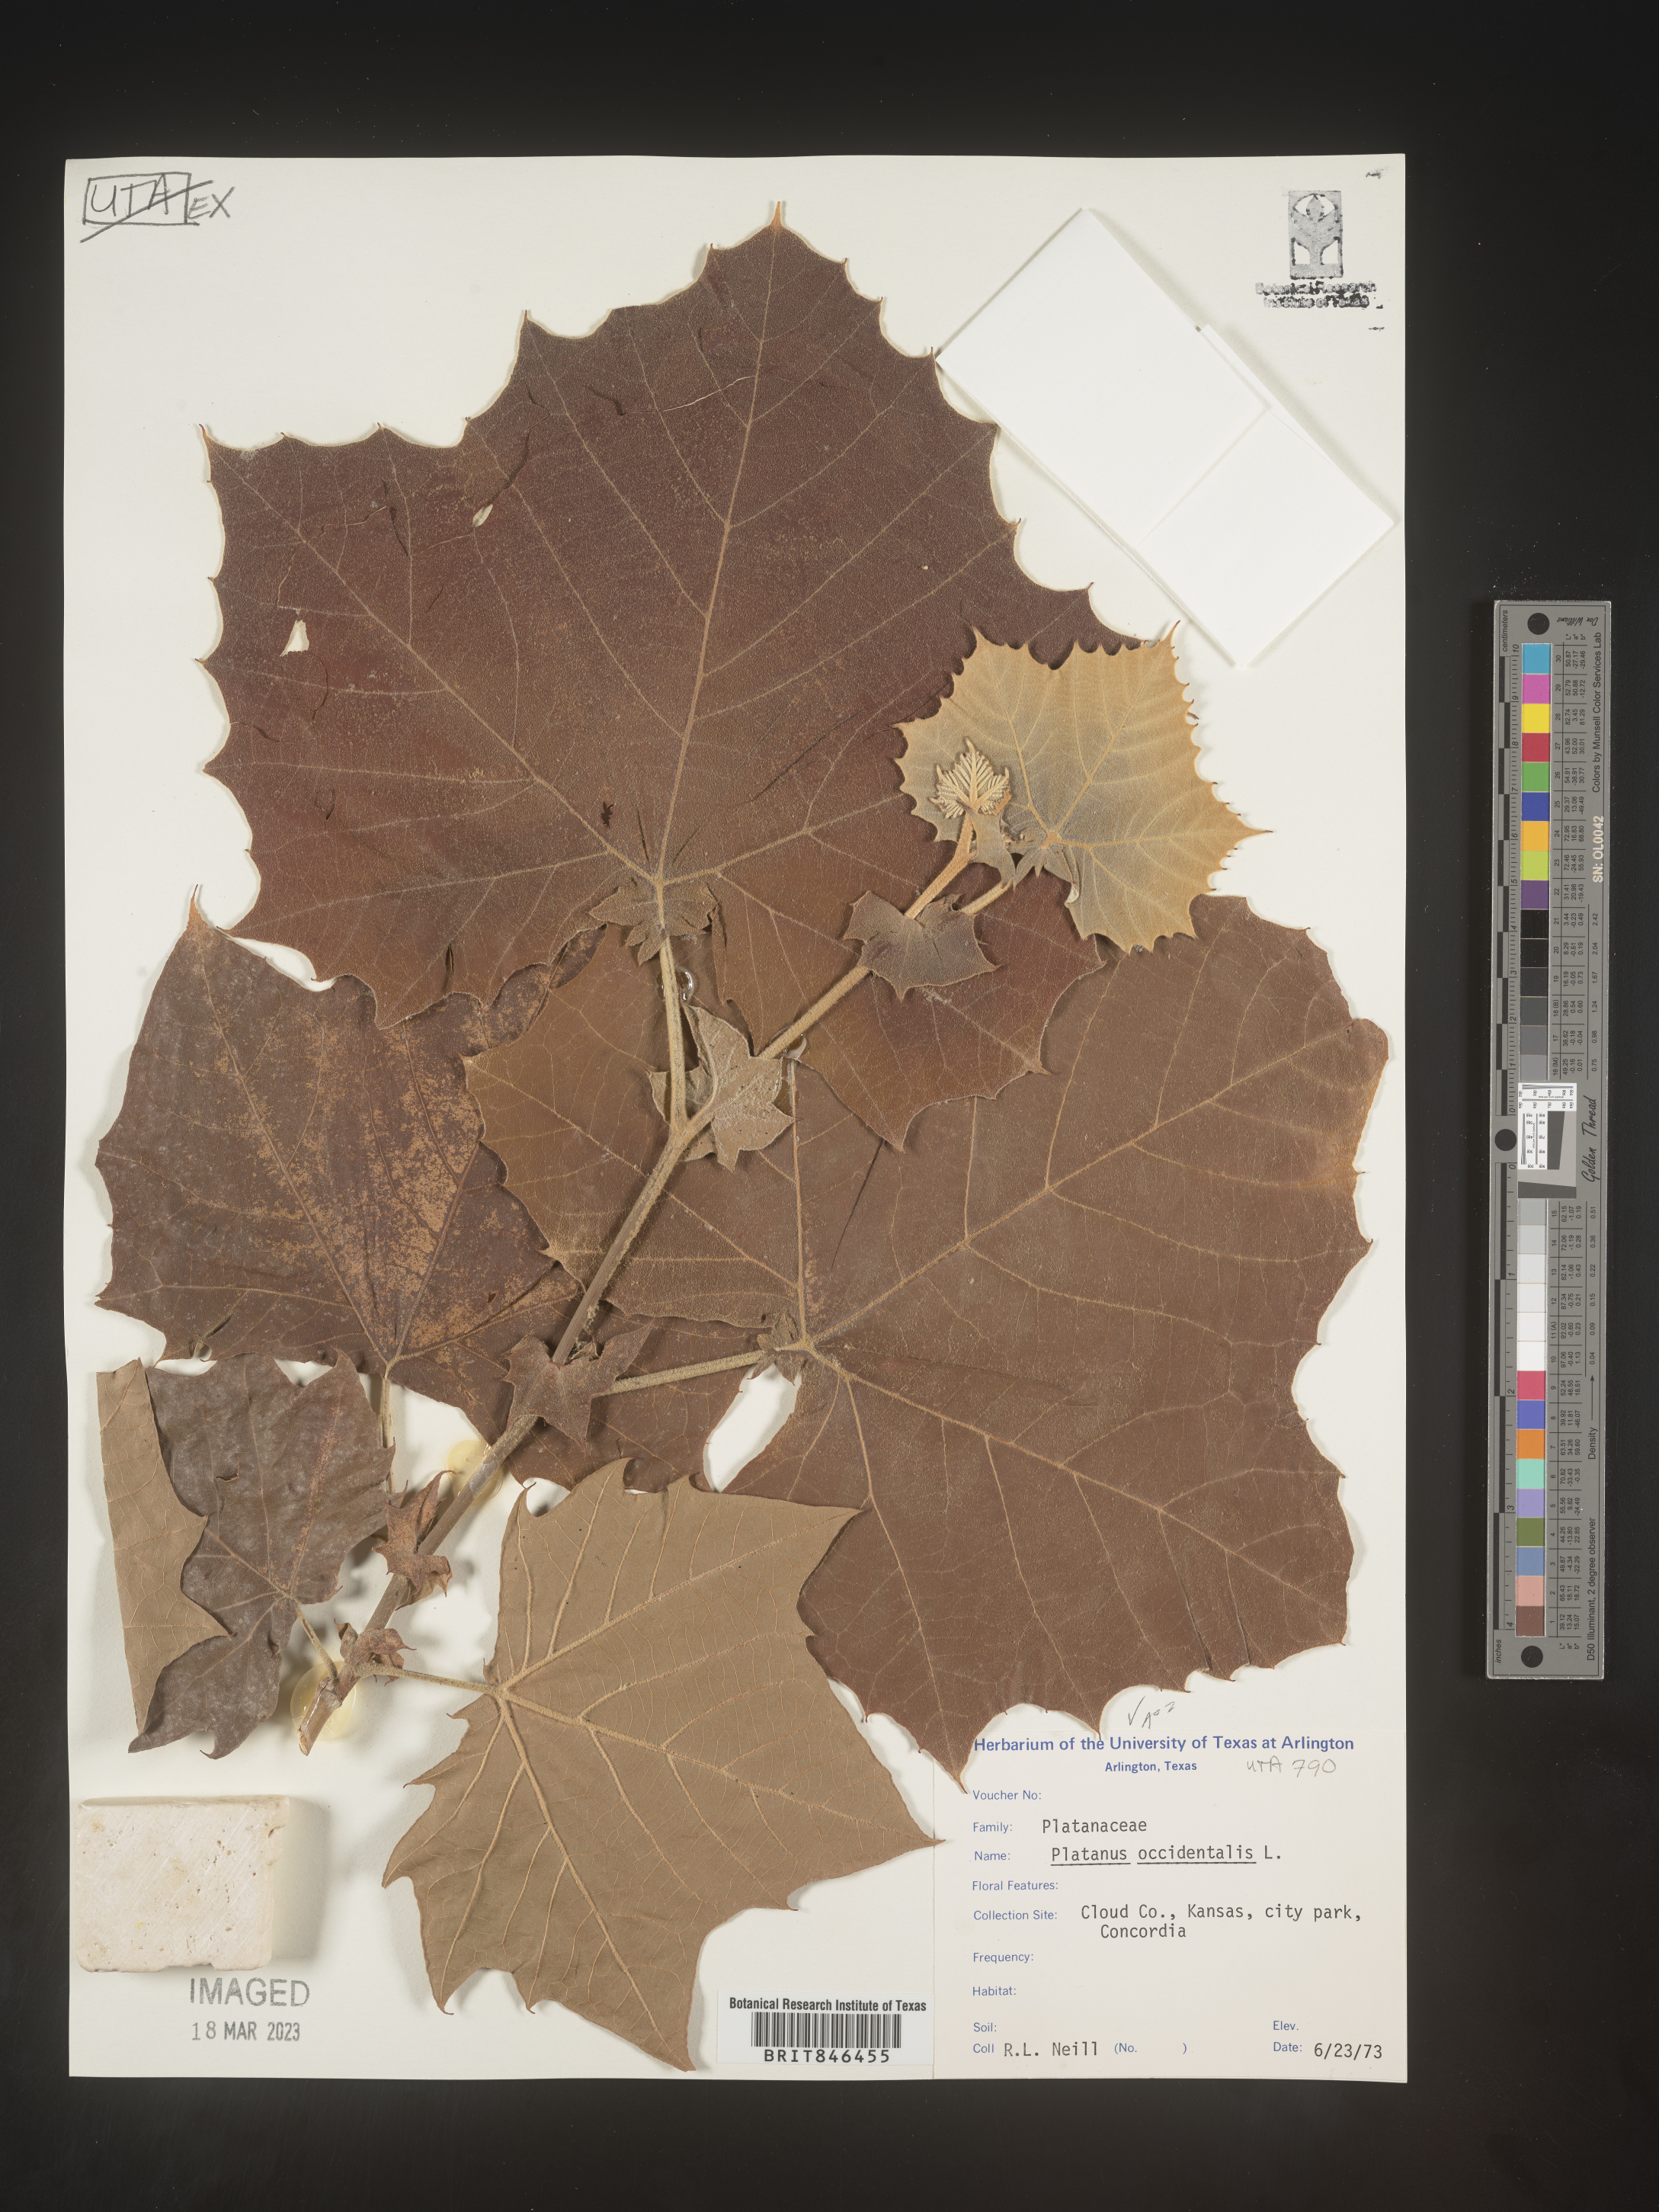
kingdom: Plantae
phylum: Tracheophyta
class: Magnoliopsida
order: Proteales
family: Platanaceae
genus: Platanus
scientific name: Platanus occidentalis
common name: American sycamore
